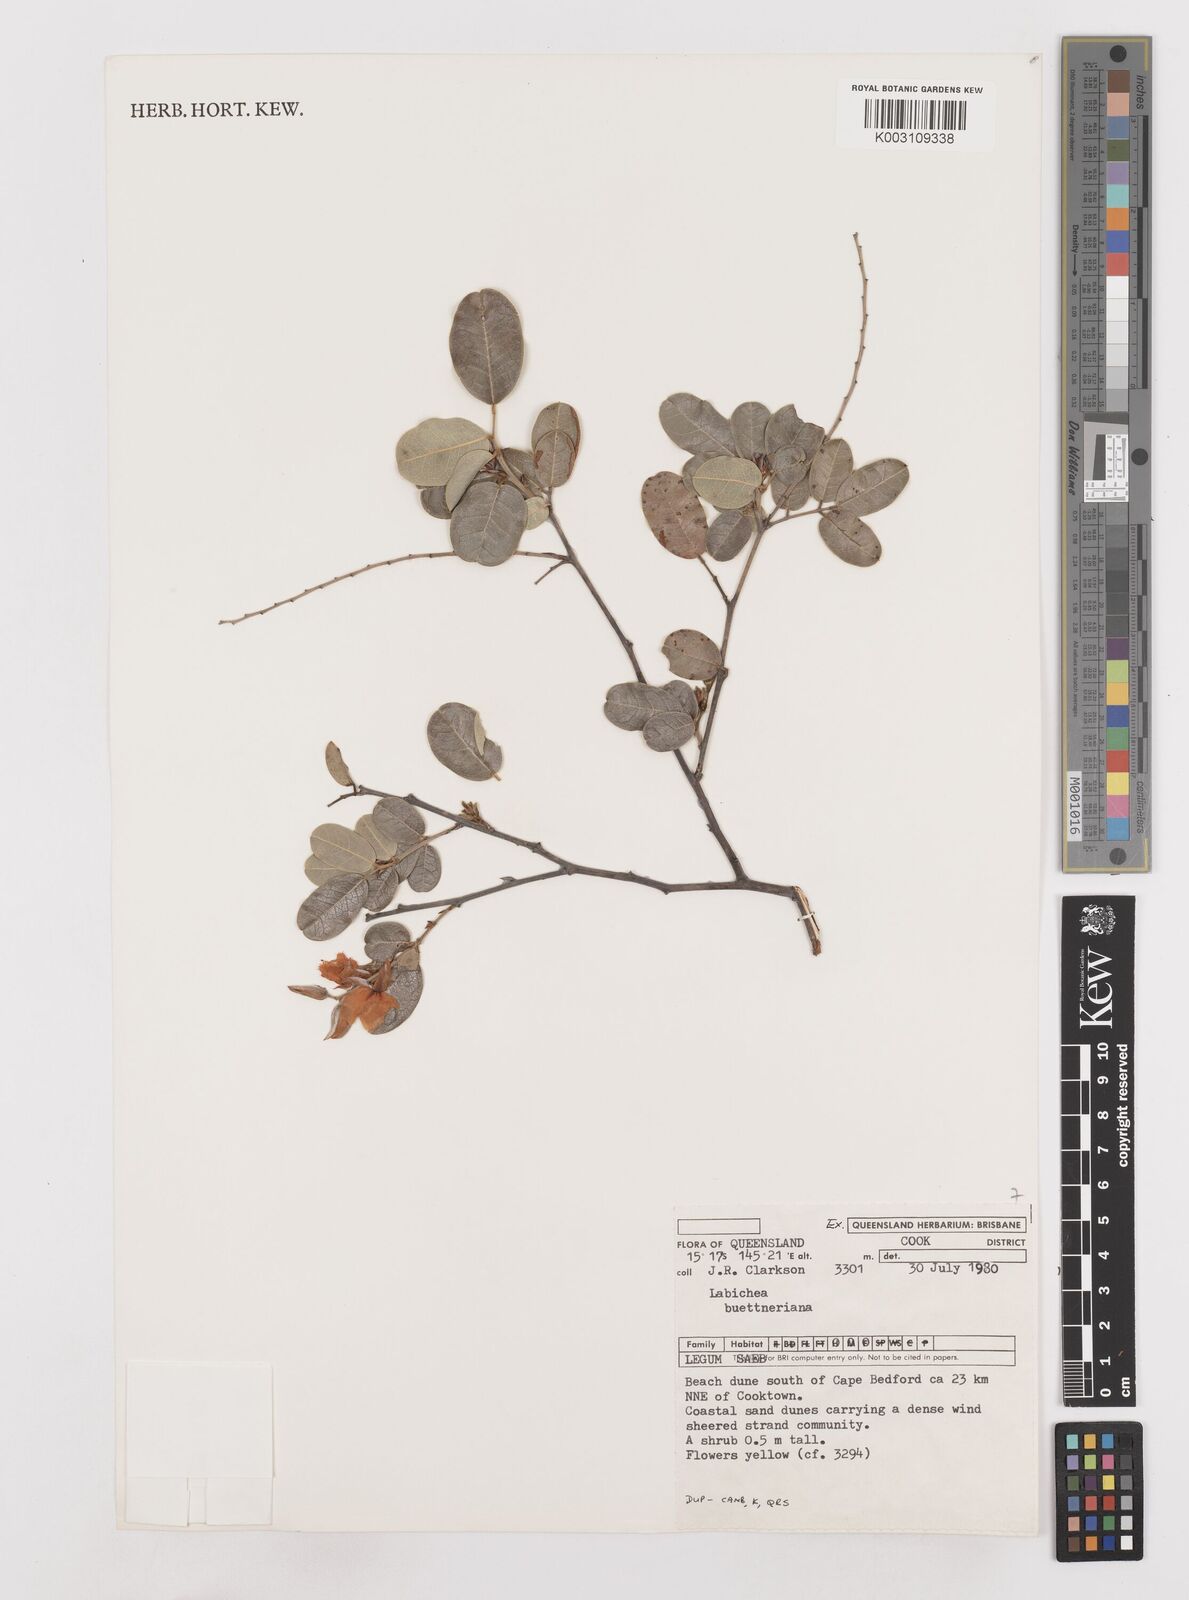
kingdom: Plantae
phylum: Tracheophyta
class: Magnoliopsida
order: Fabales
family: Fabaceae
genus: Labichea
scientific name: Labichea buettneriana
